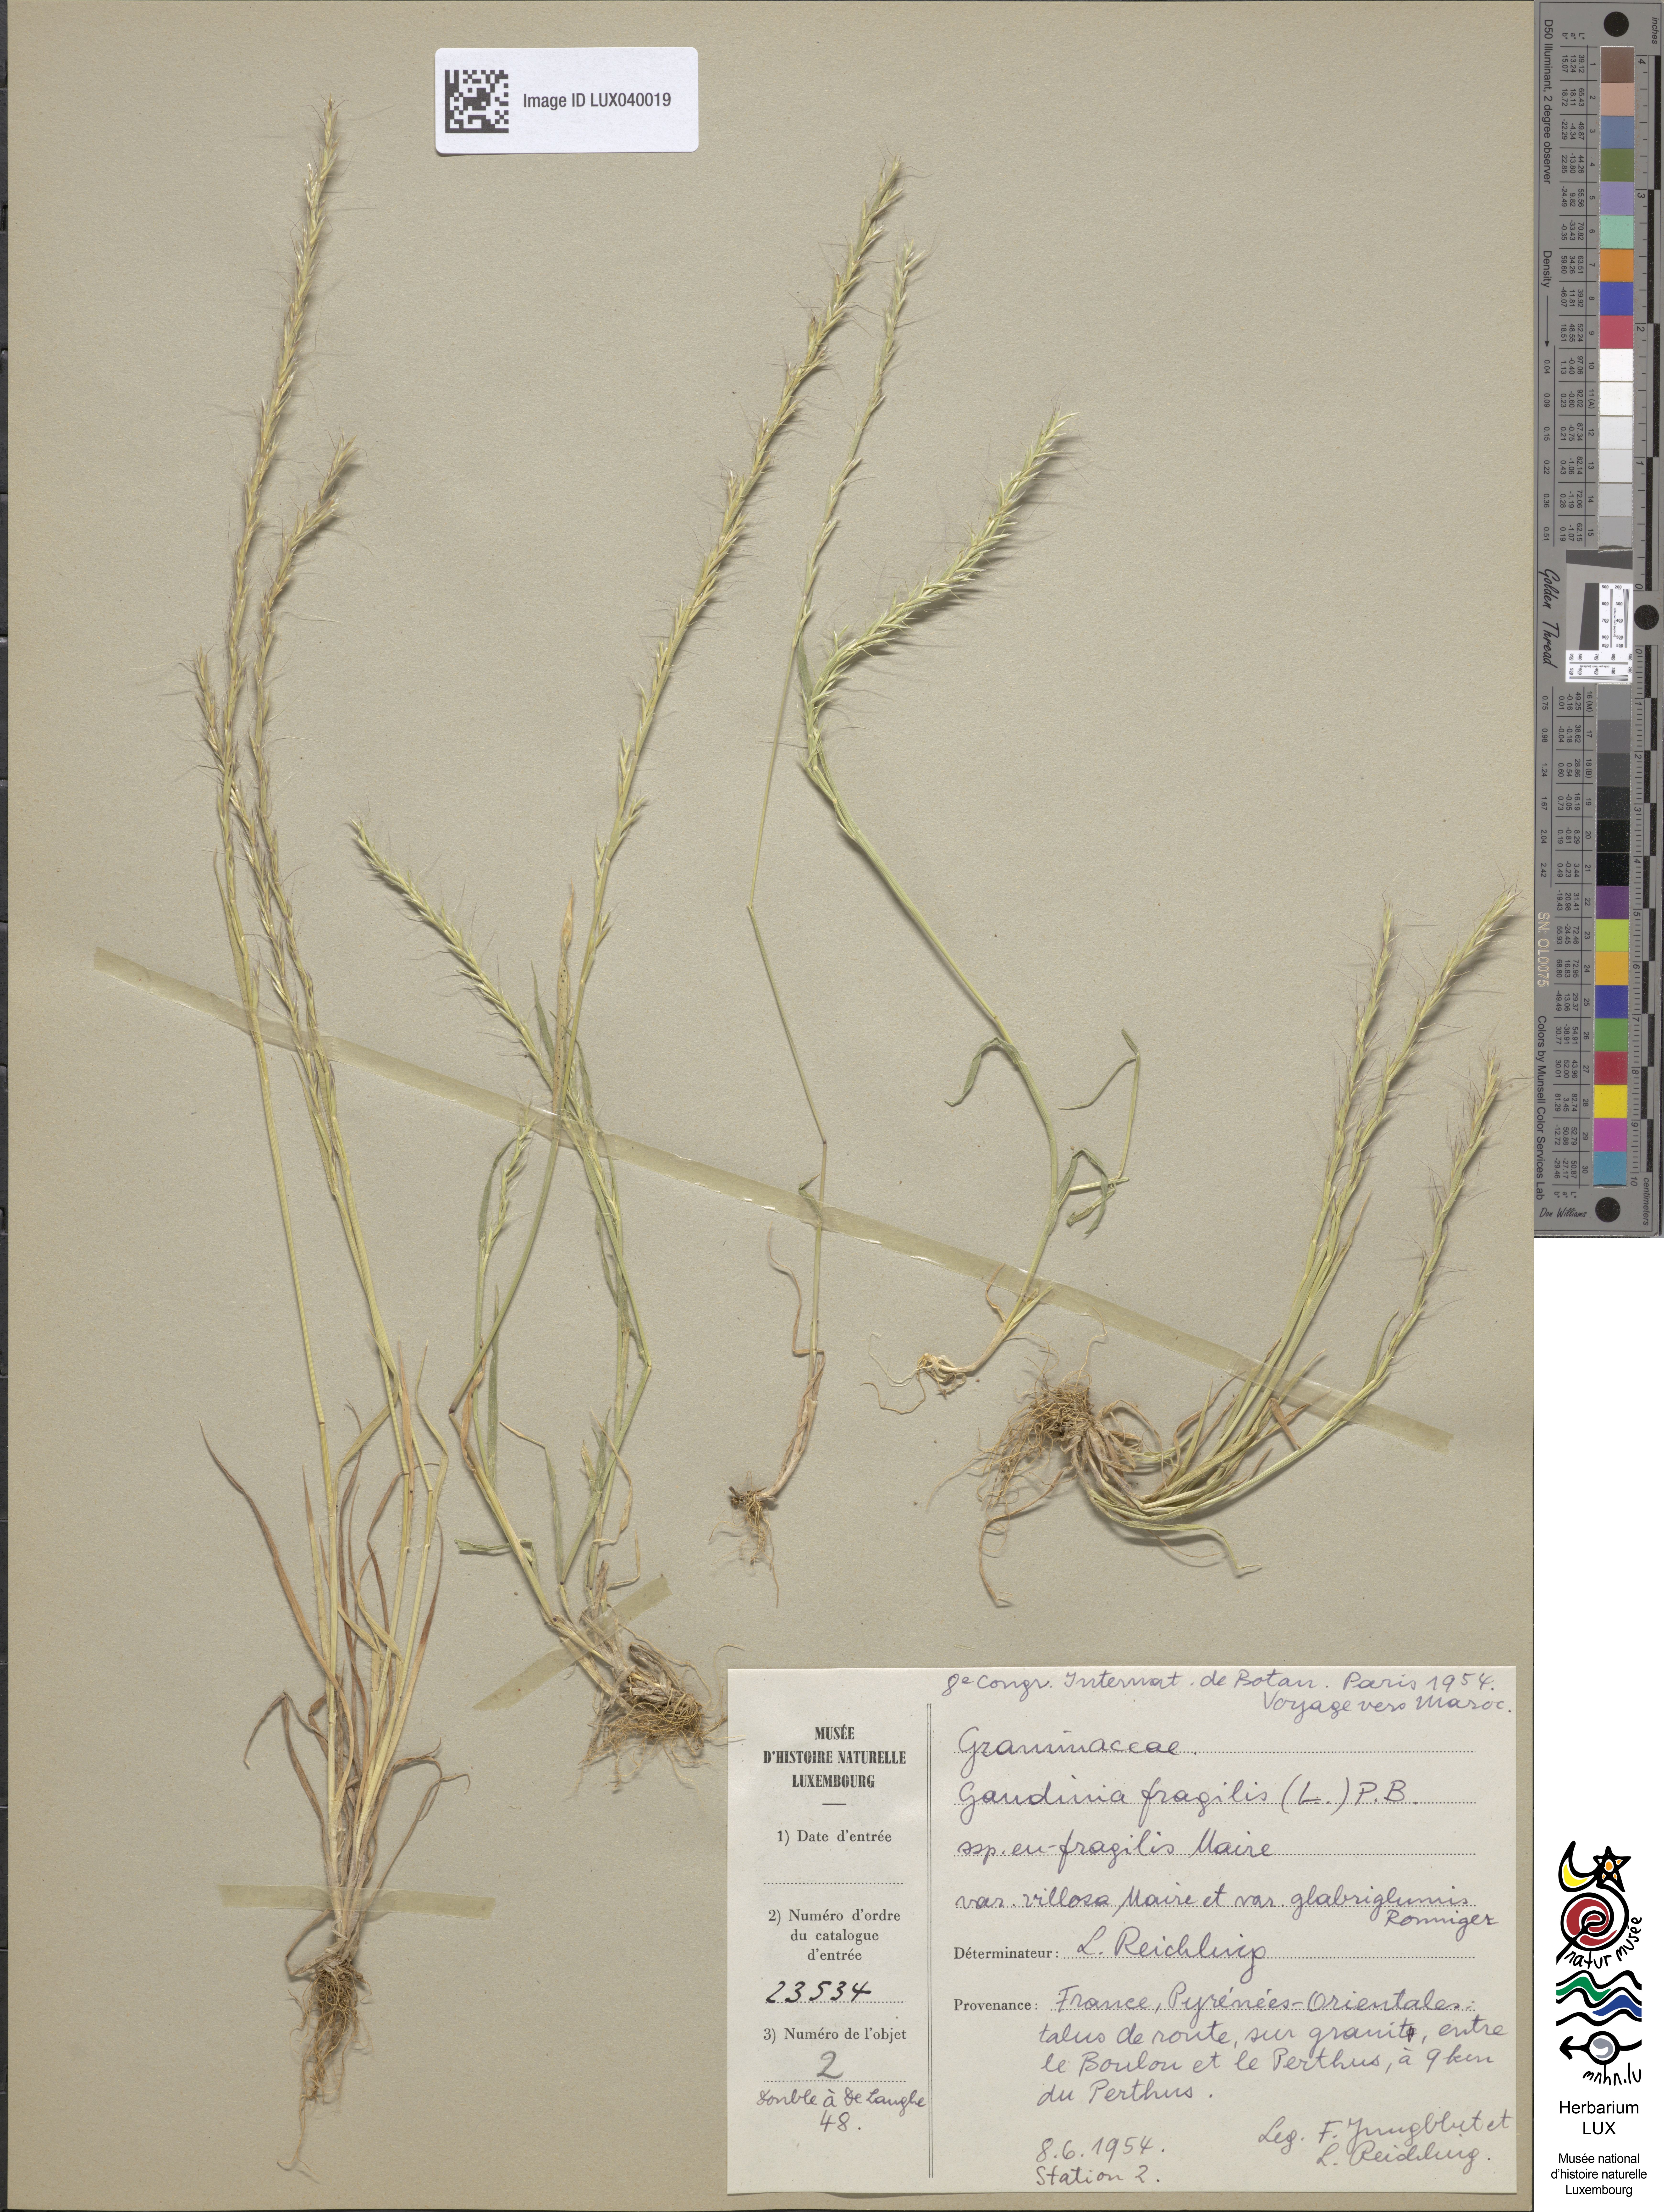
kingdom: Plantae
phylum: Tracheophyta
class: Liliopsida
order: Poales
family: Poaceae
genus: Gaudinia
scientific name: Gaudinia fragilis
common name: French oat-grass
